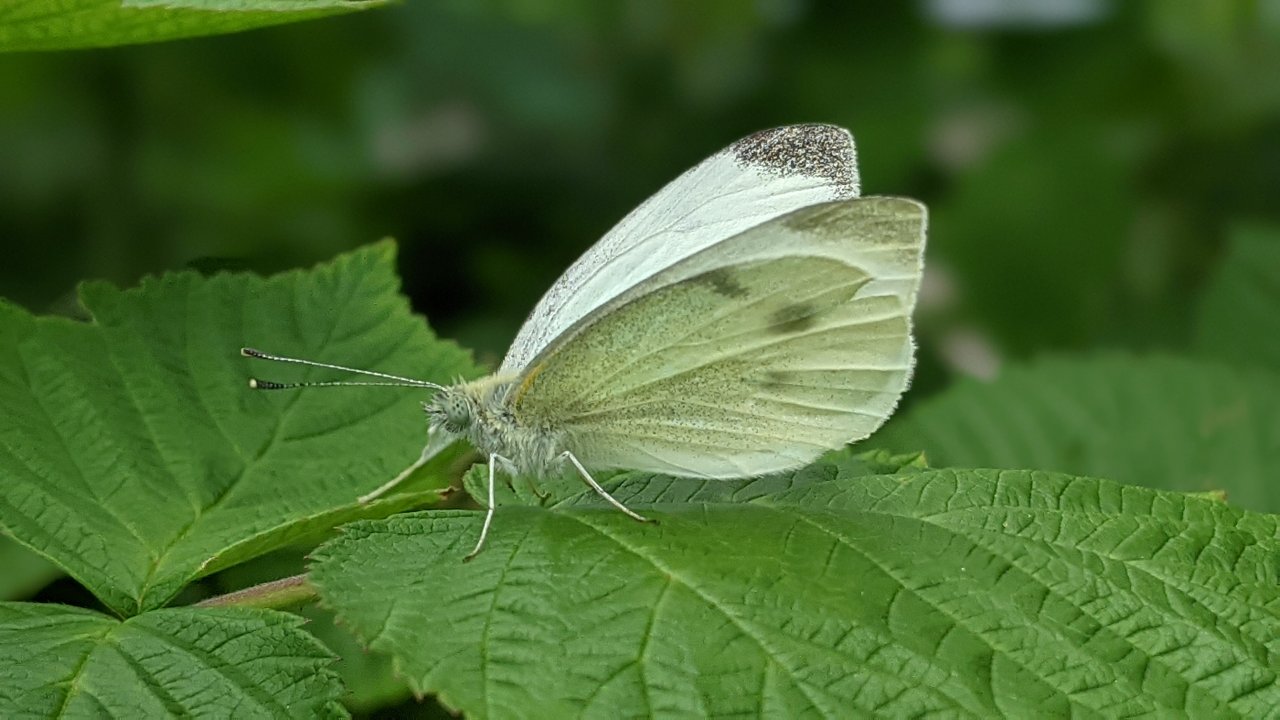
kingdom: Animalia
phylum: Arthropoda
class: Insecta
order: Lepidoptera
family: Pieridae
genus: Pieris
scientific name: Pieris rapae
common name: Cabbage White
